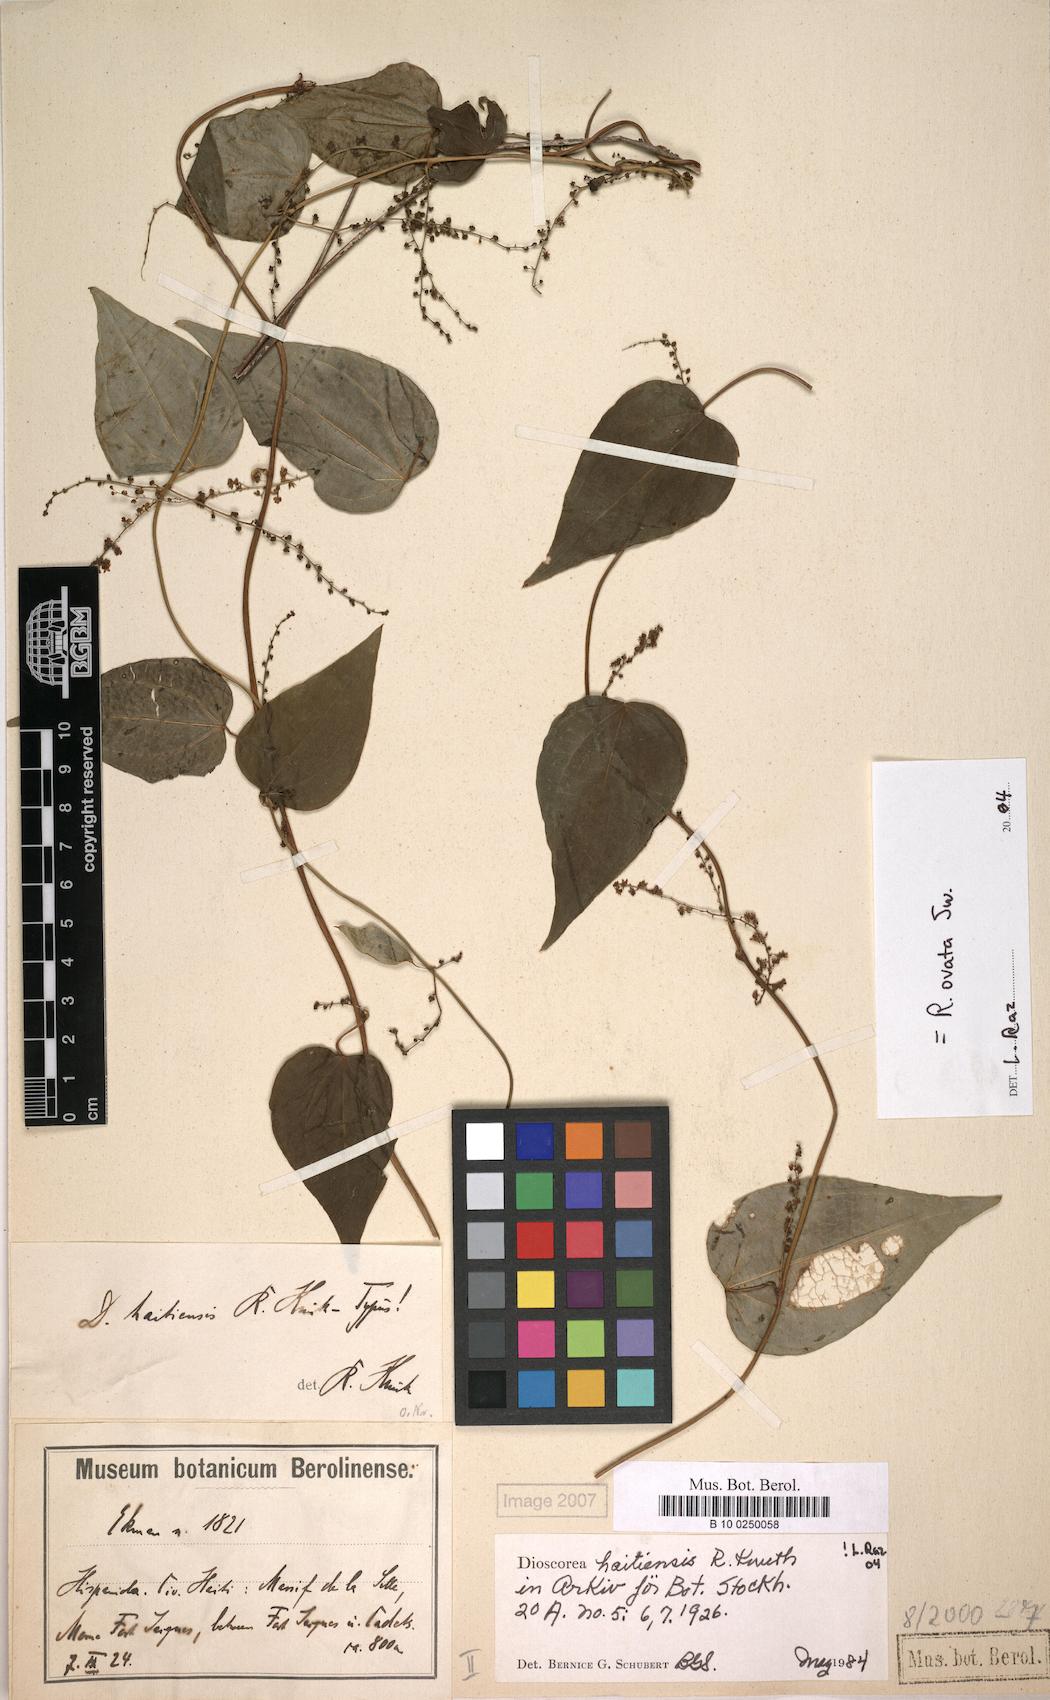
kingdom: Plantae
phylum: Tracheophyta
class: Liliopsida
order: Dioscoreales
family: Dioscoreaceae
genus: Dioscorea
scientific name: Dioscorea haitiensis
